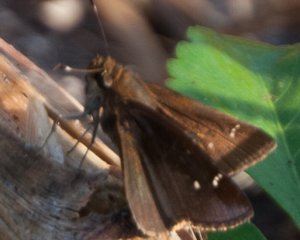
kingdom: Animalia
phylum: Arthropoda
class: Insecta
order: Lepidoptera
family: Hesperiidae
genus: Lerema
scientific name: Lerema accius
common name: Clouded Skipper
